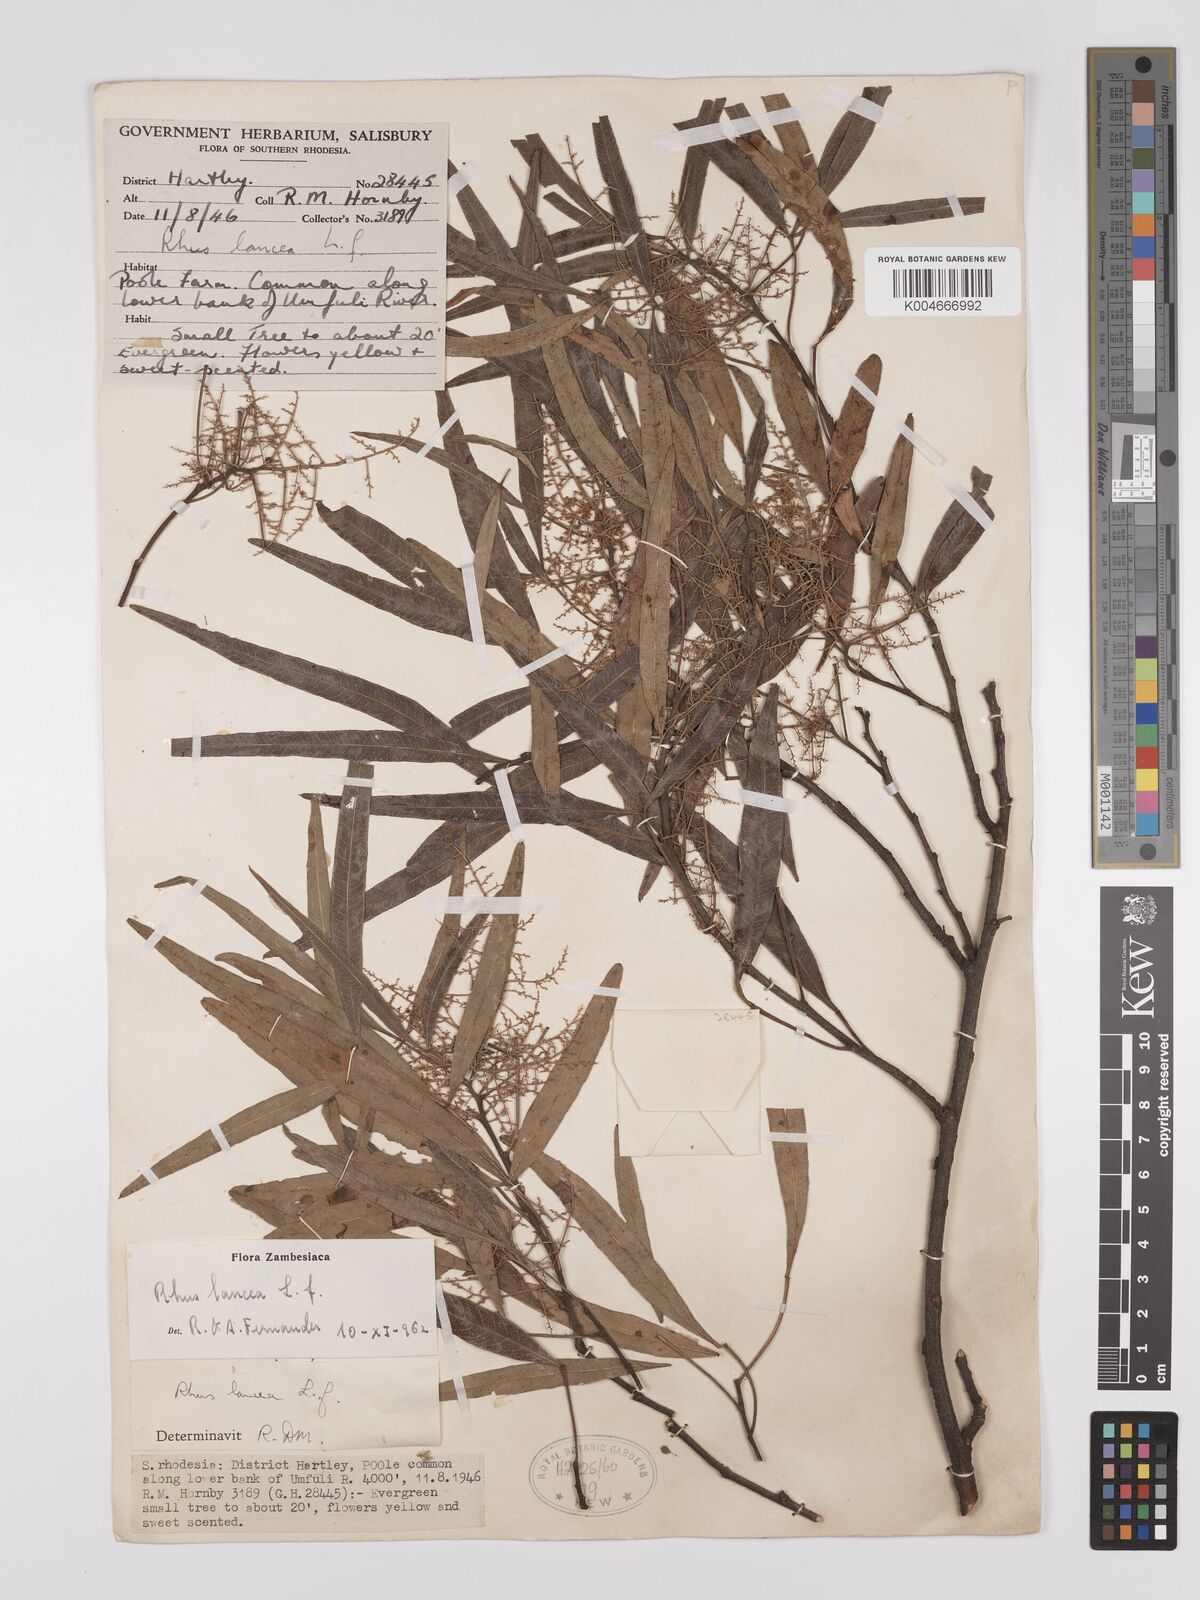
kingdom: Plantae
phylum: Tracheophyta
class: Magnoliopsida
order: Sapindales
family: Anacardiaceae
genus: Searsia
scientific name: Searsia lancea
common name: Cashew
